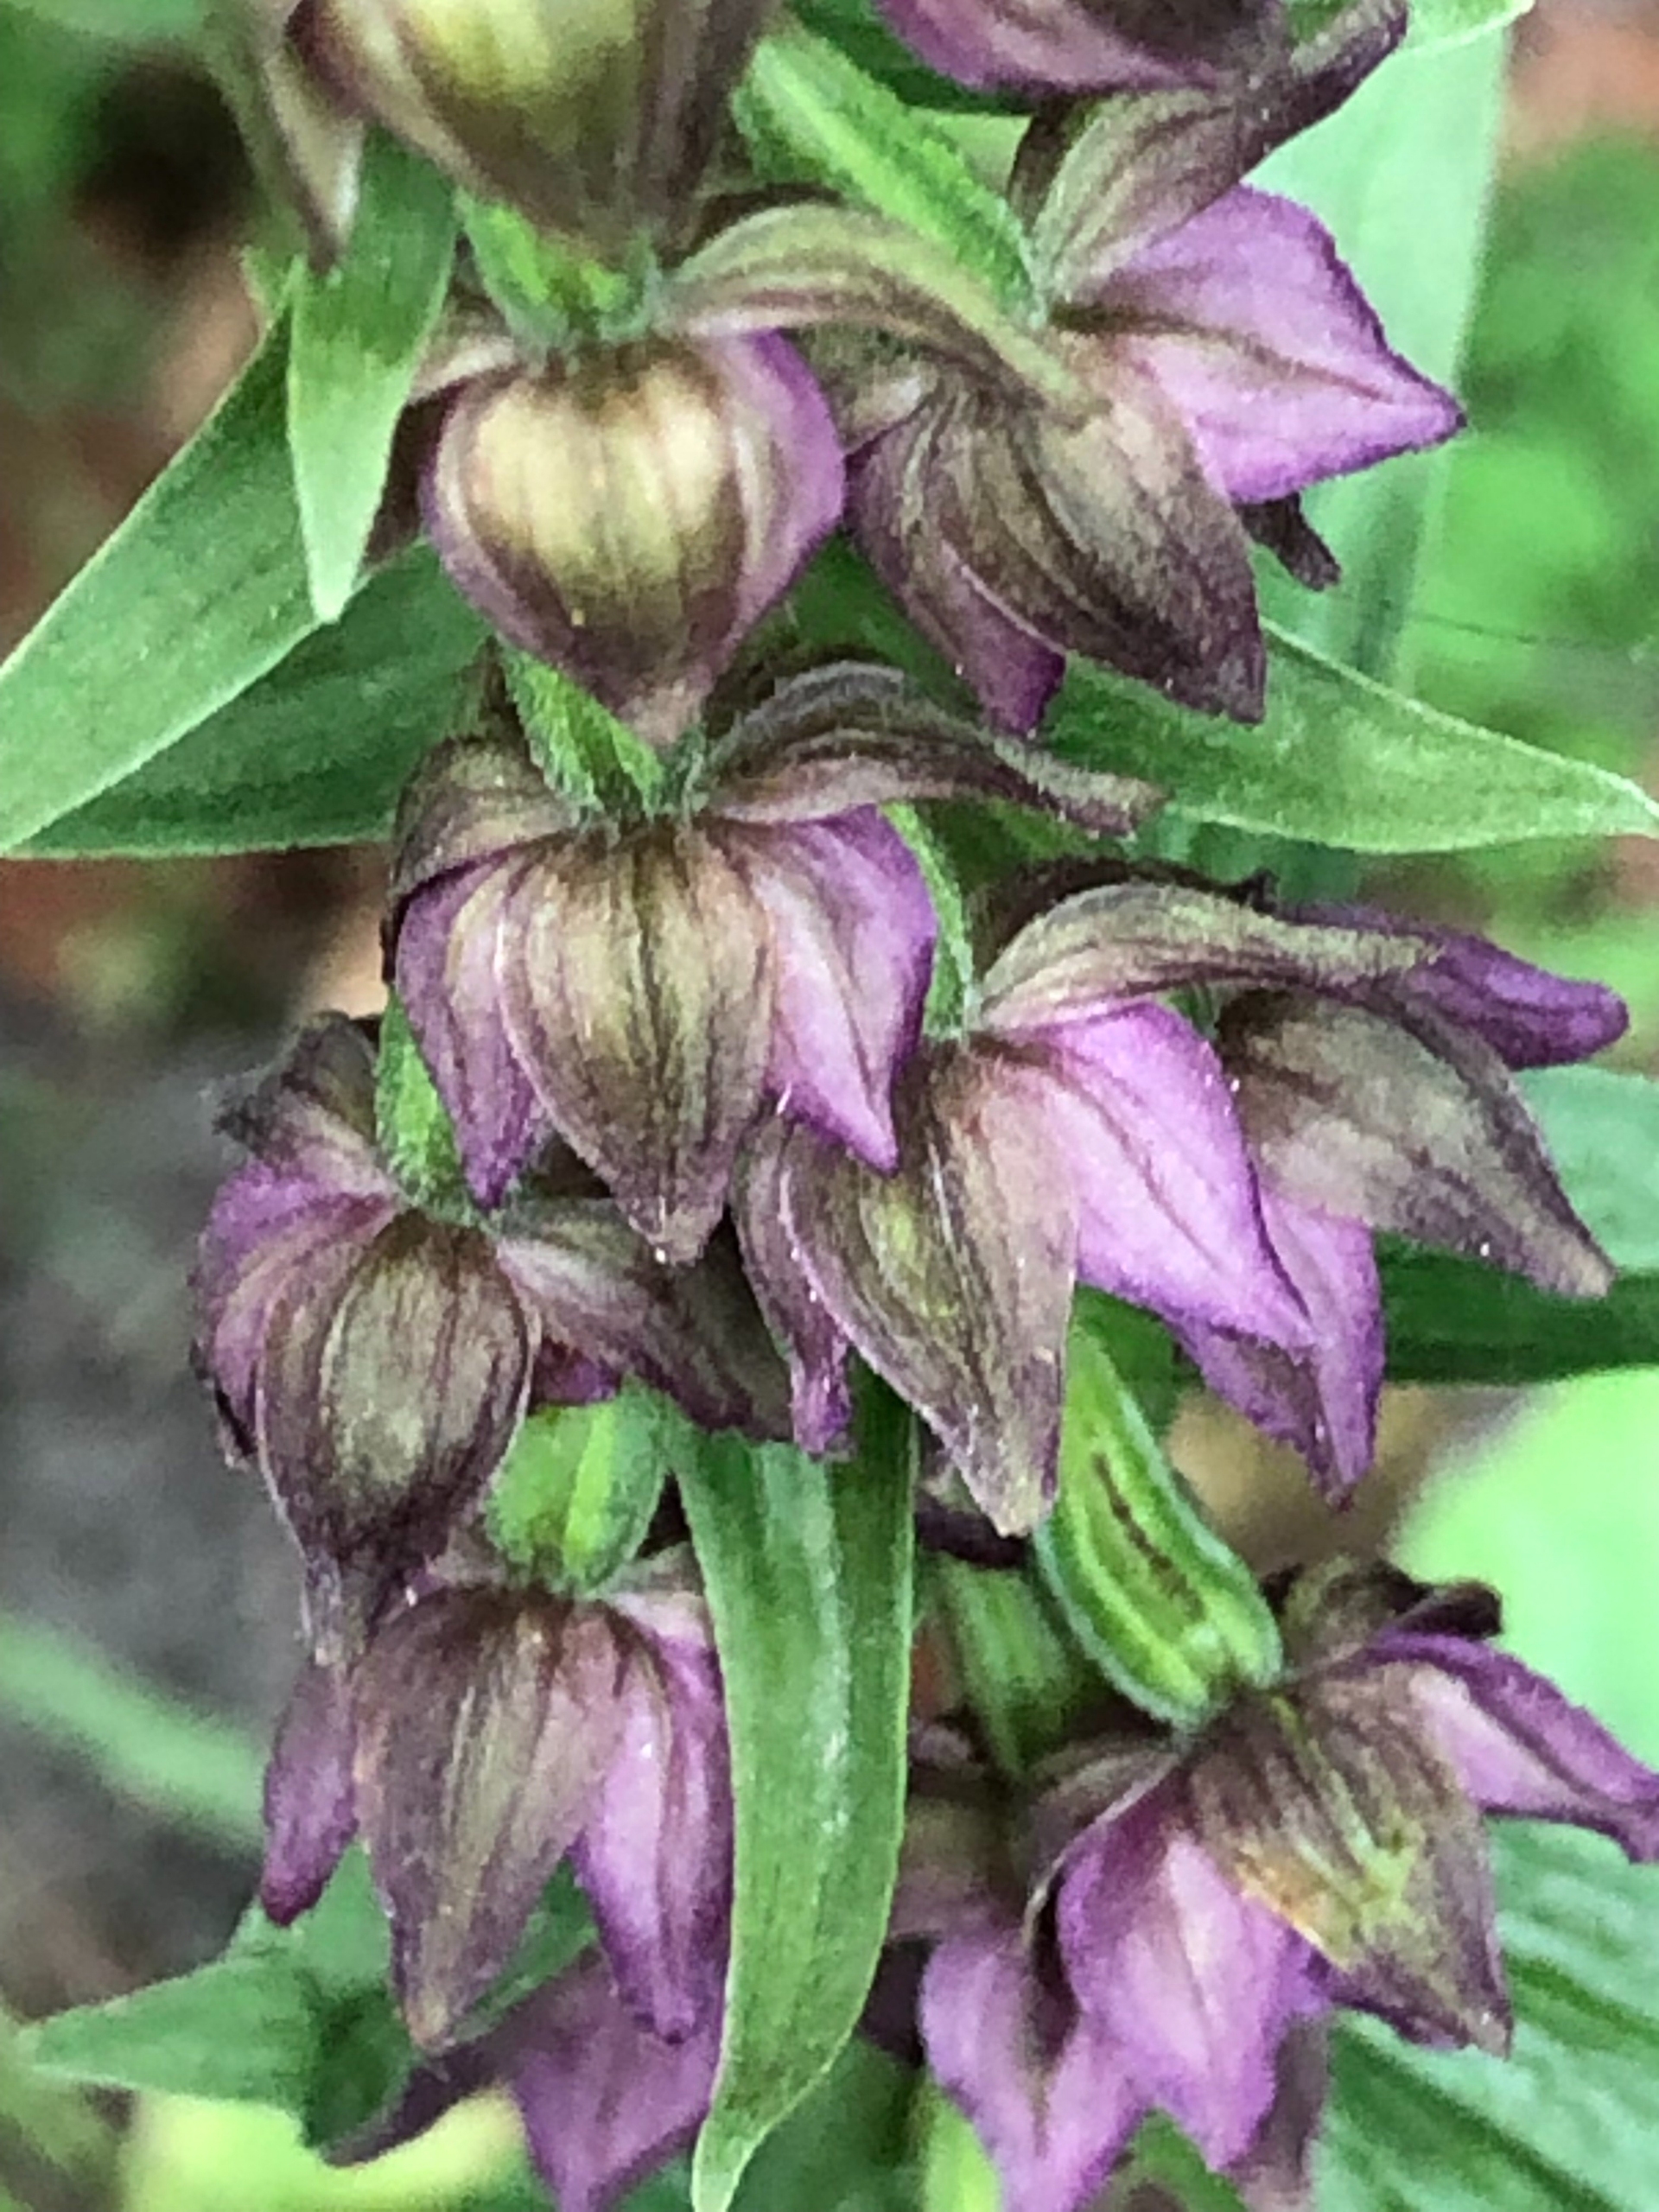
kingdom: Plantae
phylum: Tracheophyta
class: Liliopsida
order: Asparagales
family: Orchidaceae
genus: Epipactis
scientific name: Epipactis helleborine
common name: Skov-hullæbe
